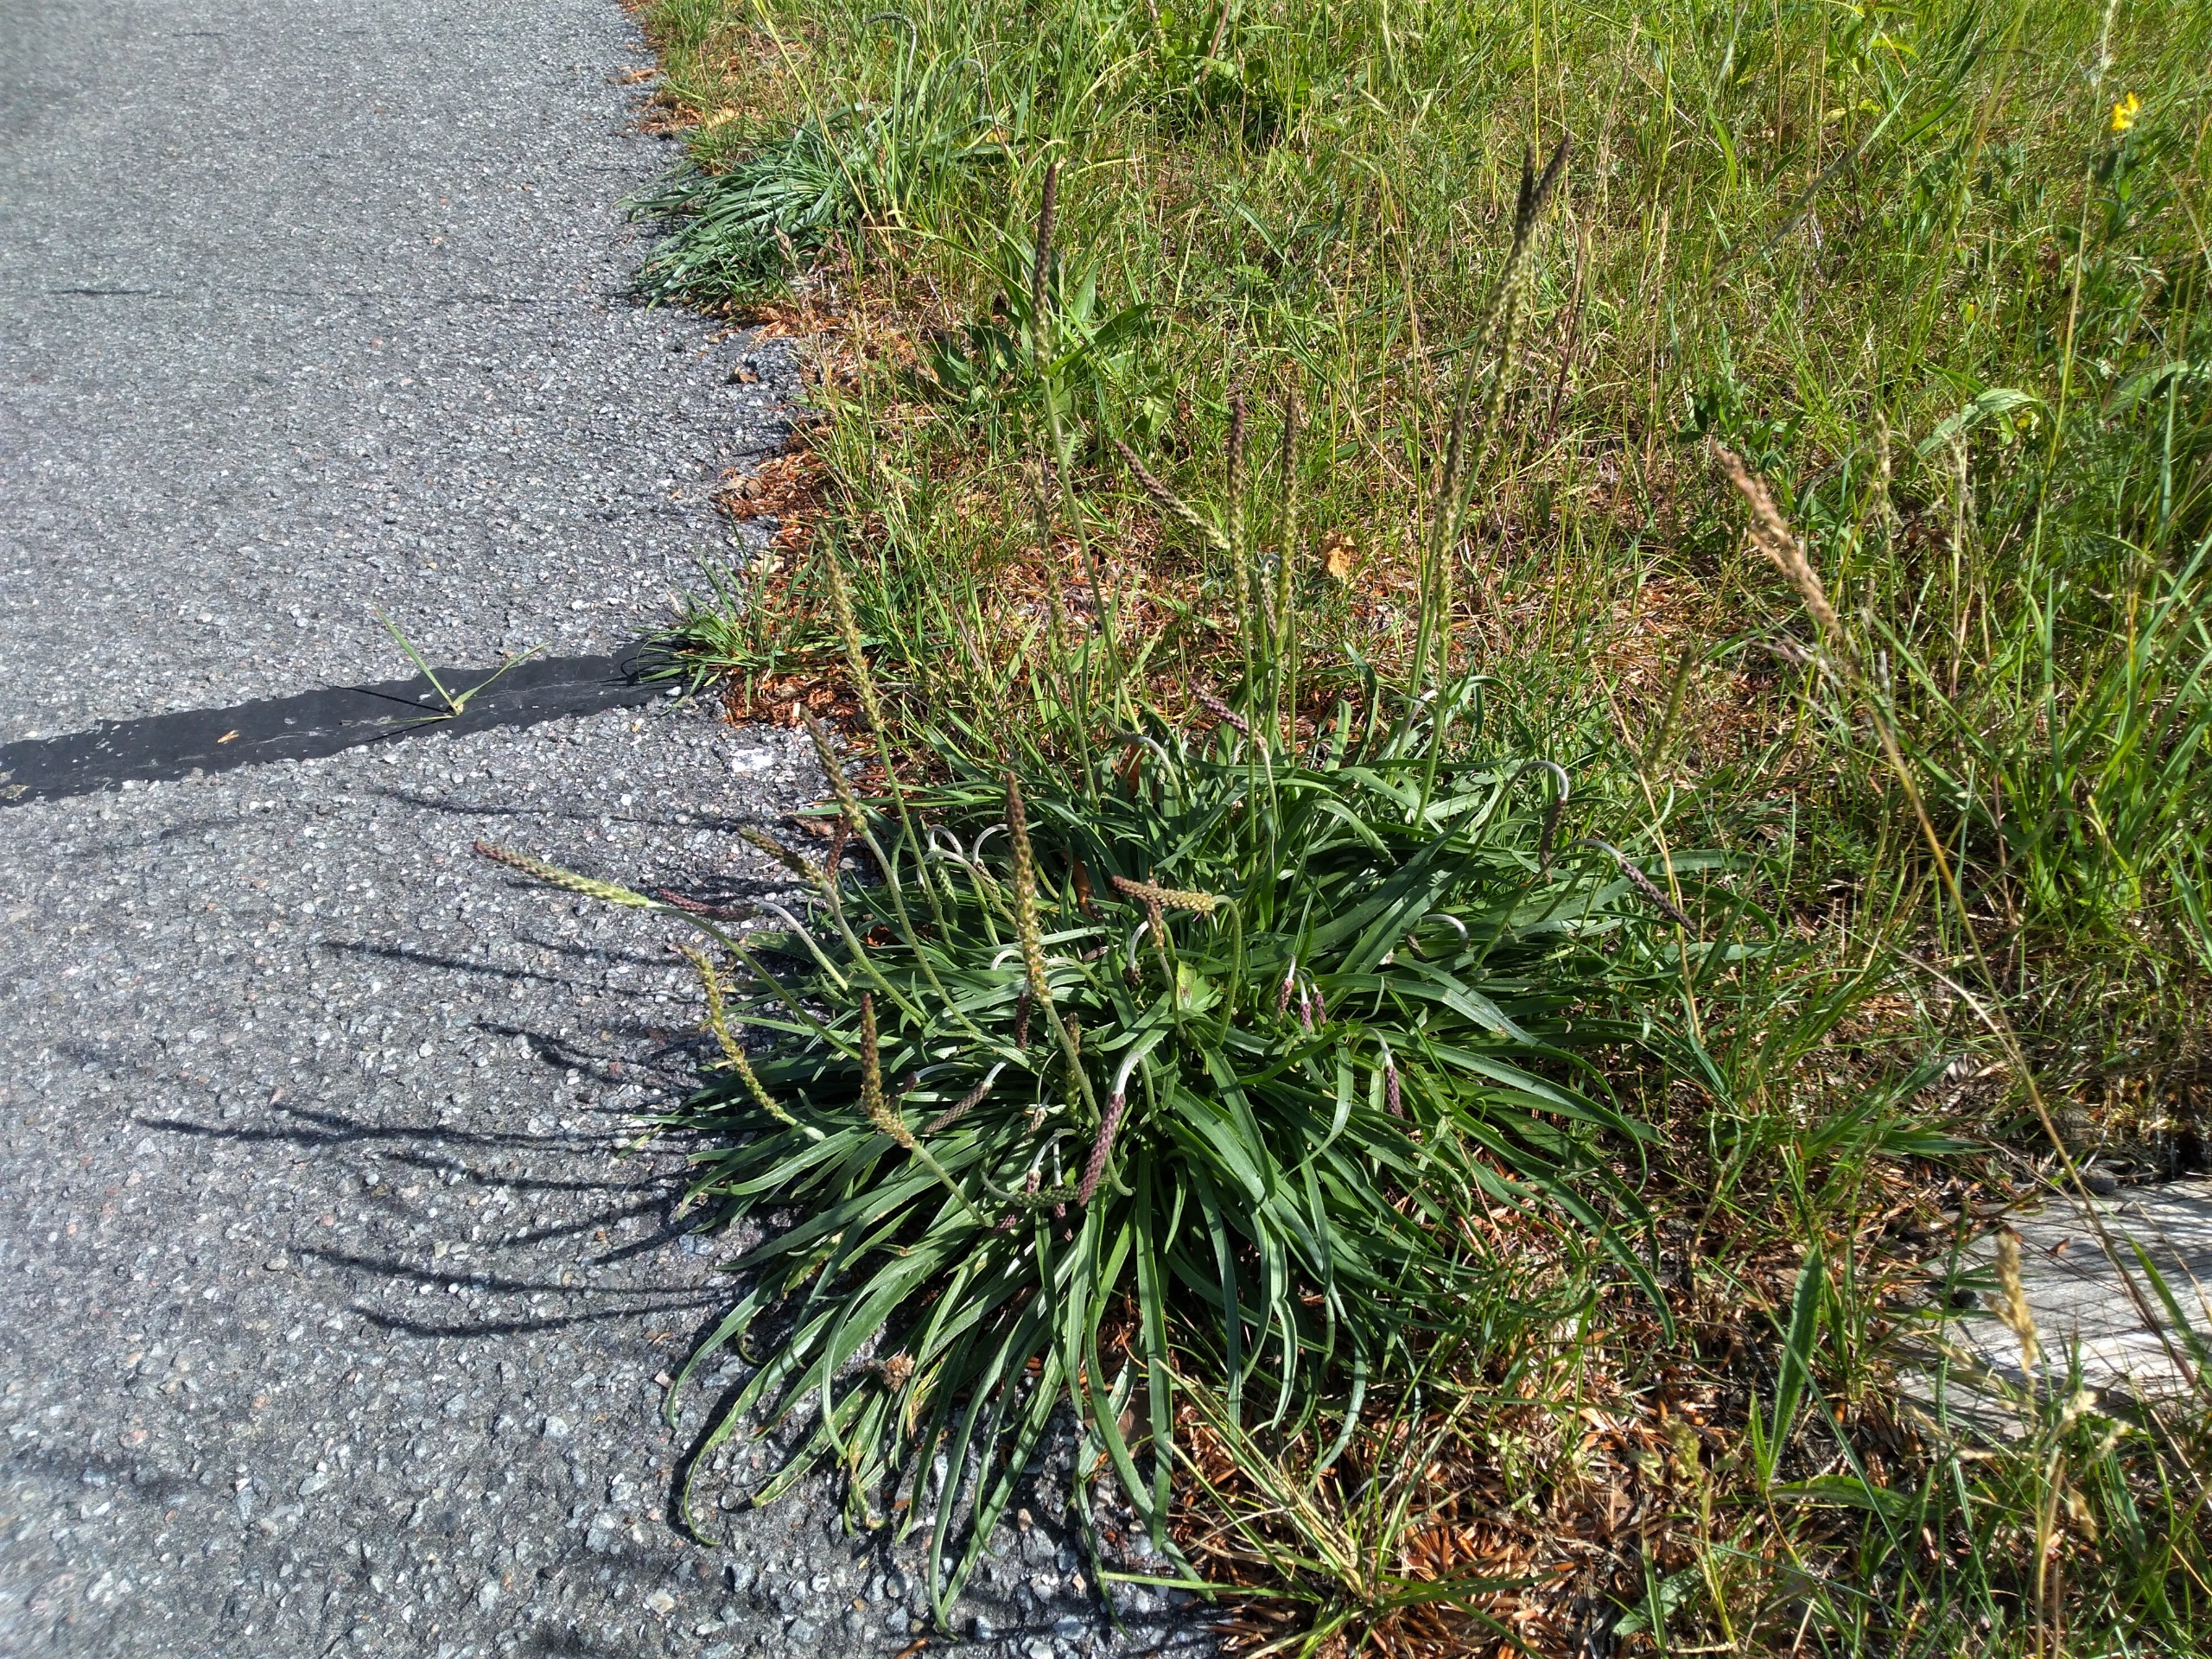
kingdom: Plantae
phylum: Tracheophyta
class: Magnoliopsida
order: Lamiales
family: Plantaginaceae
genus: Plantago
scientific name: Plantago maritima
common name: Strand-vejbred
